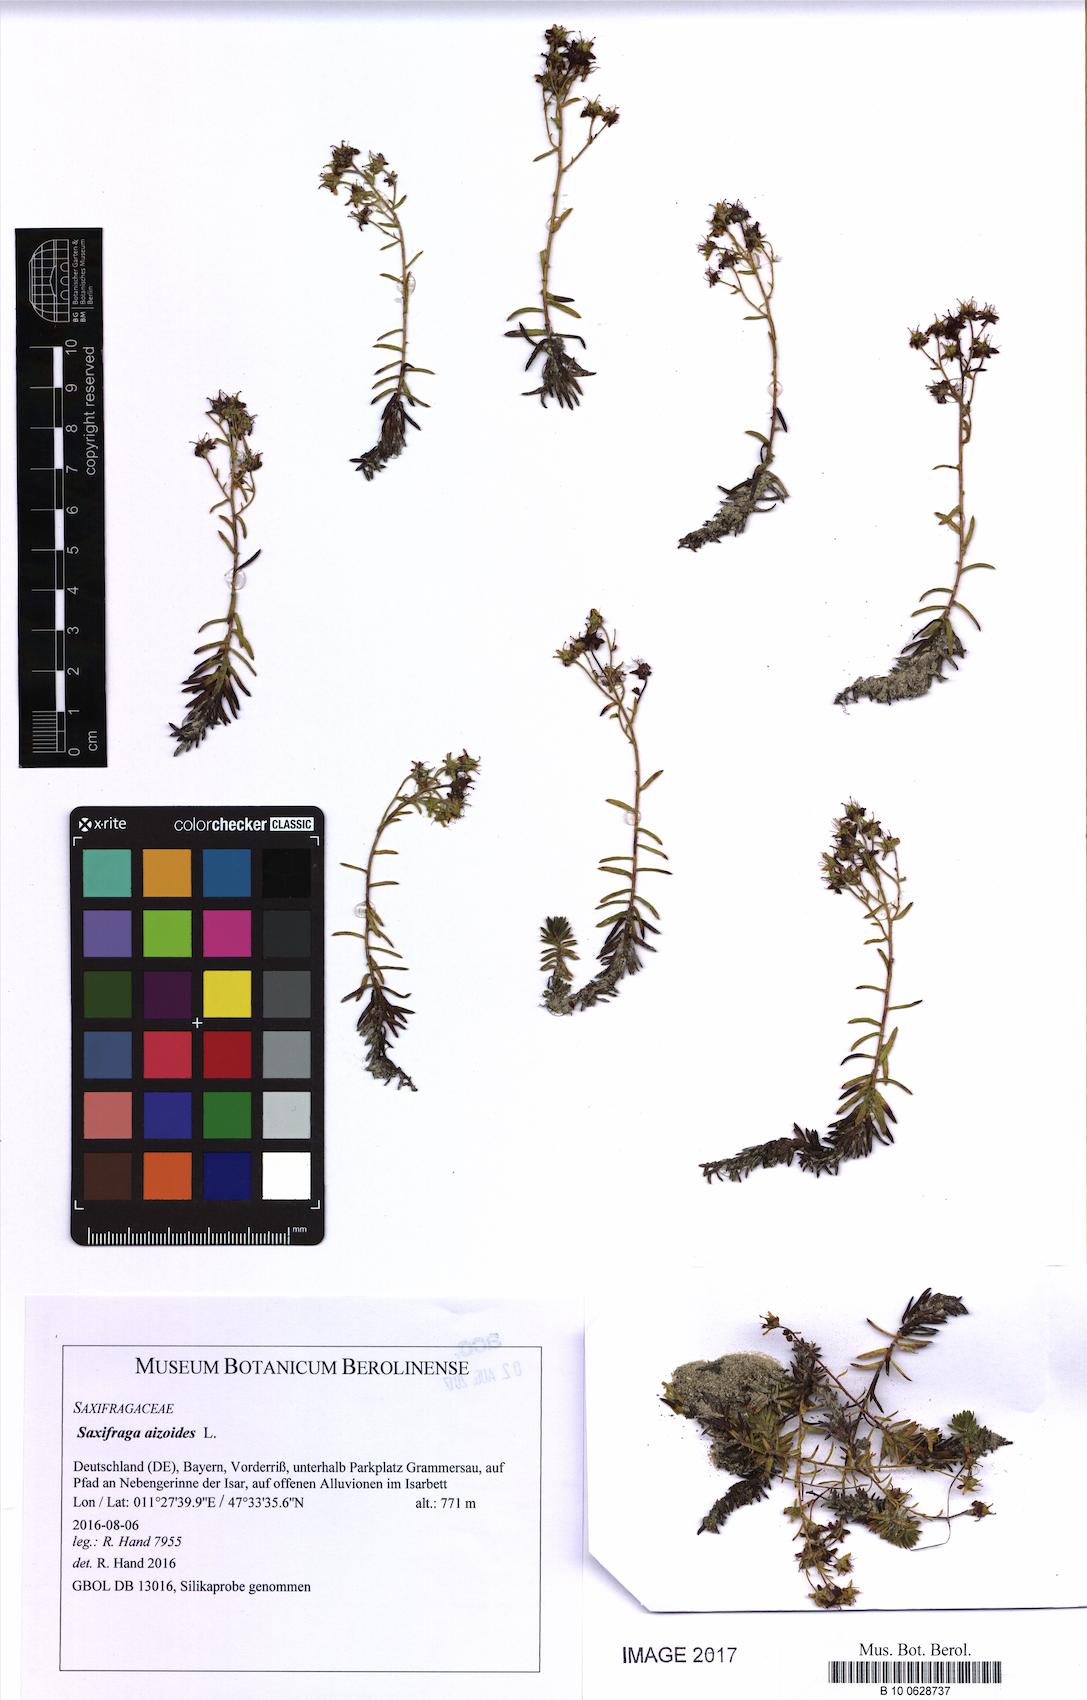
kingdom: Plantae
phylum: Tracheophyta
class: Magnoliopsida
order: Saxifragales
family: Saxifragaceae
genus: Saxifraga
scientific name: Saxifraga aizoides
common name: Yellow mountain saxifrage
